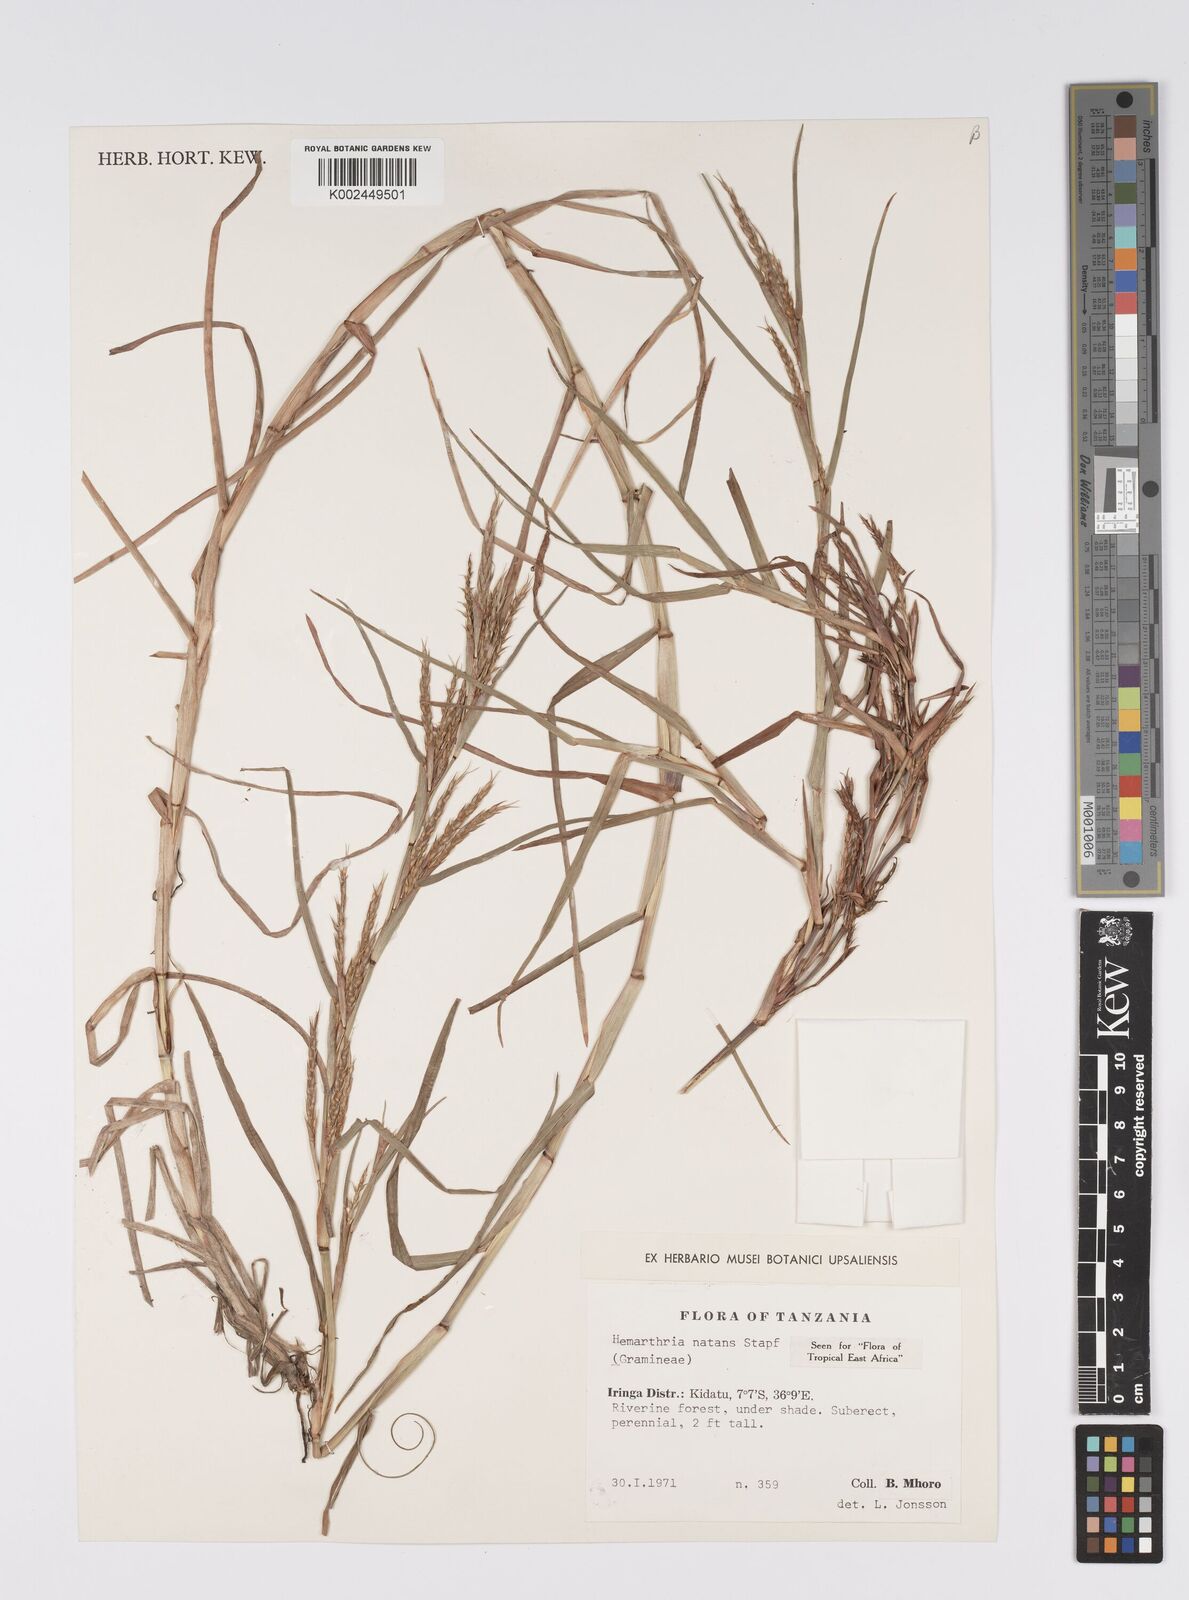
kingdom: Plantae
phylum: Tracheophyta
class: Liliopsida
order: Poales
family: Poaceae
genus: Hemarthria
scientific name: Hemarthria natans
